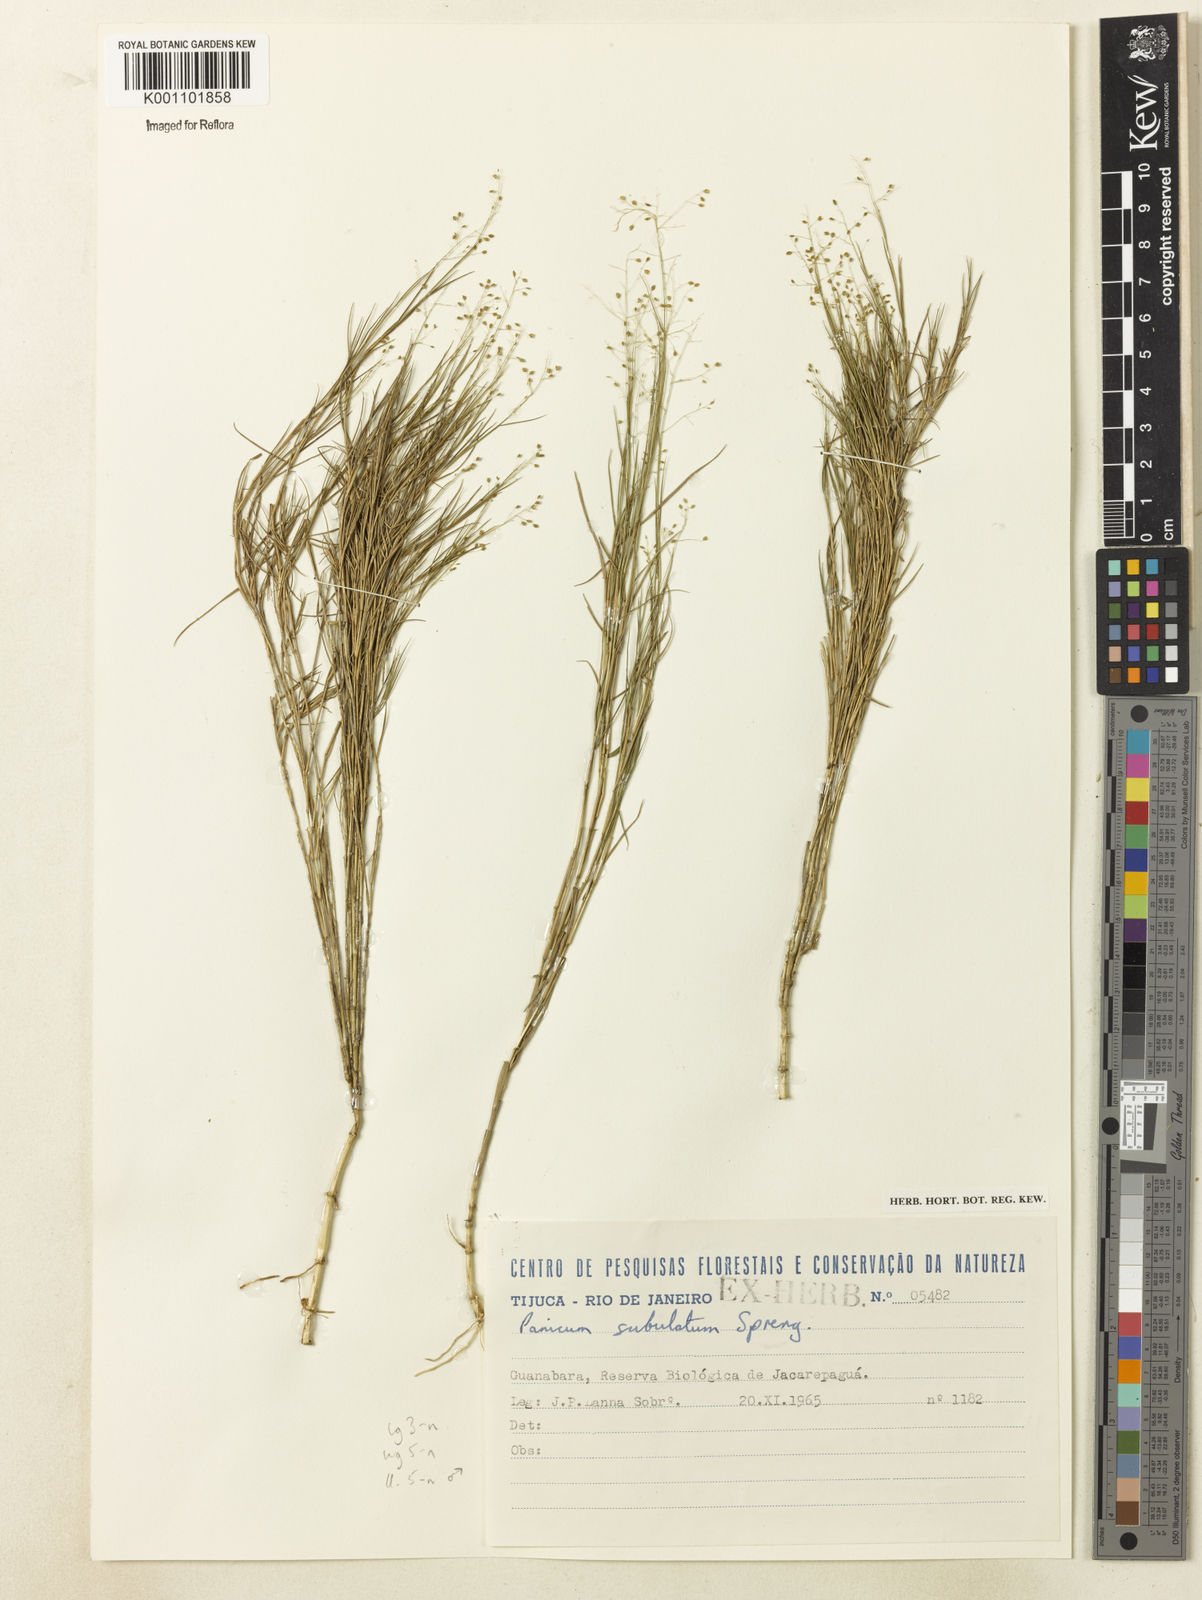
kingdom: Plantae
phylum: Tracheophyta
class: Liliopsida
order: Poales
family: Poaceae
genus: Trichanthecium
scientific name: Trichanthecium distichophyllum
